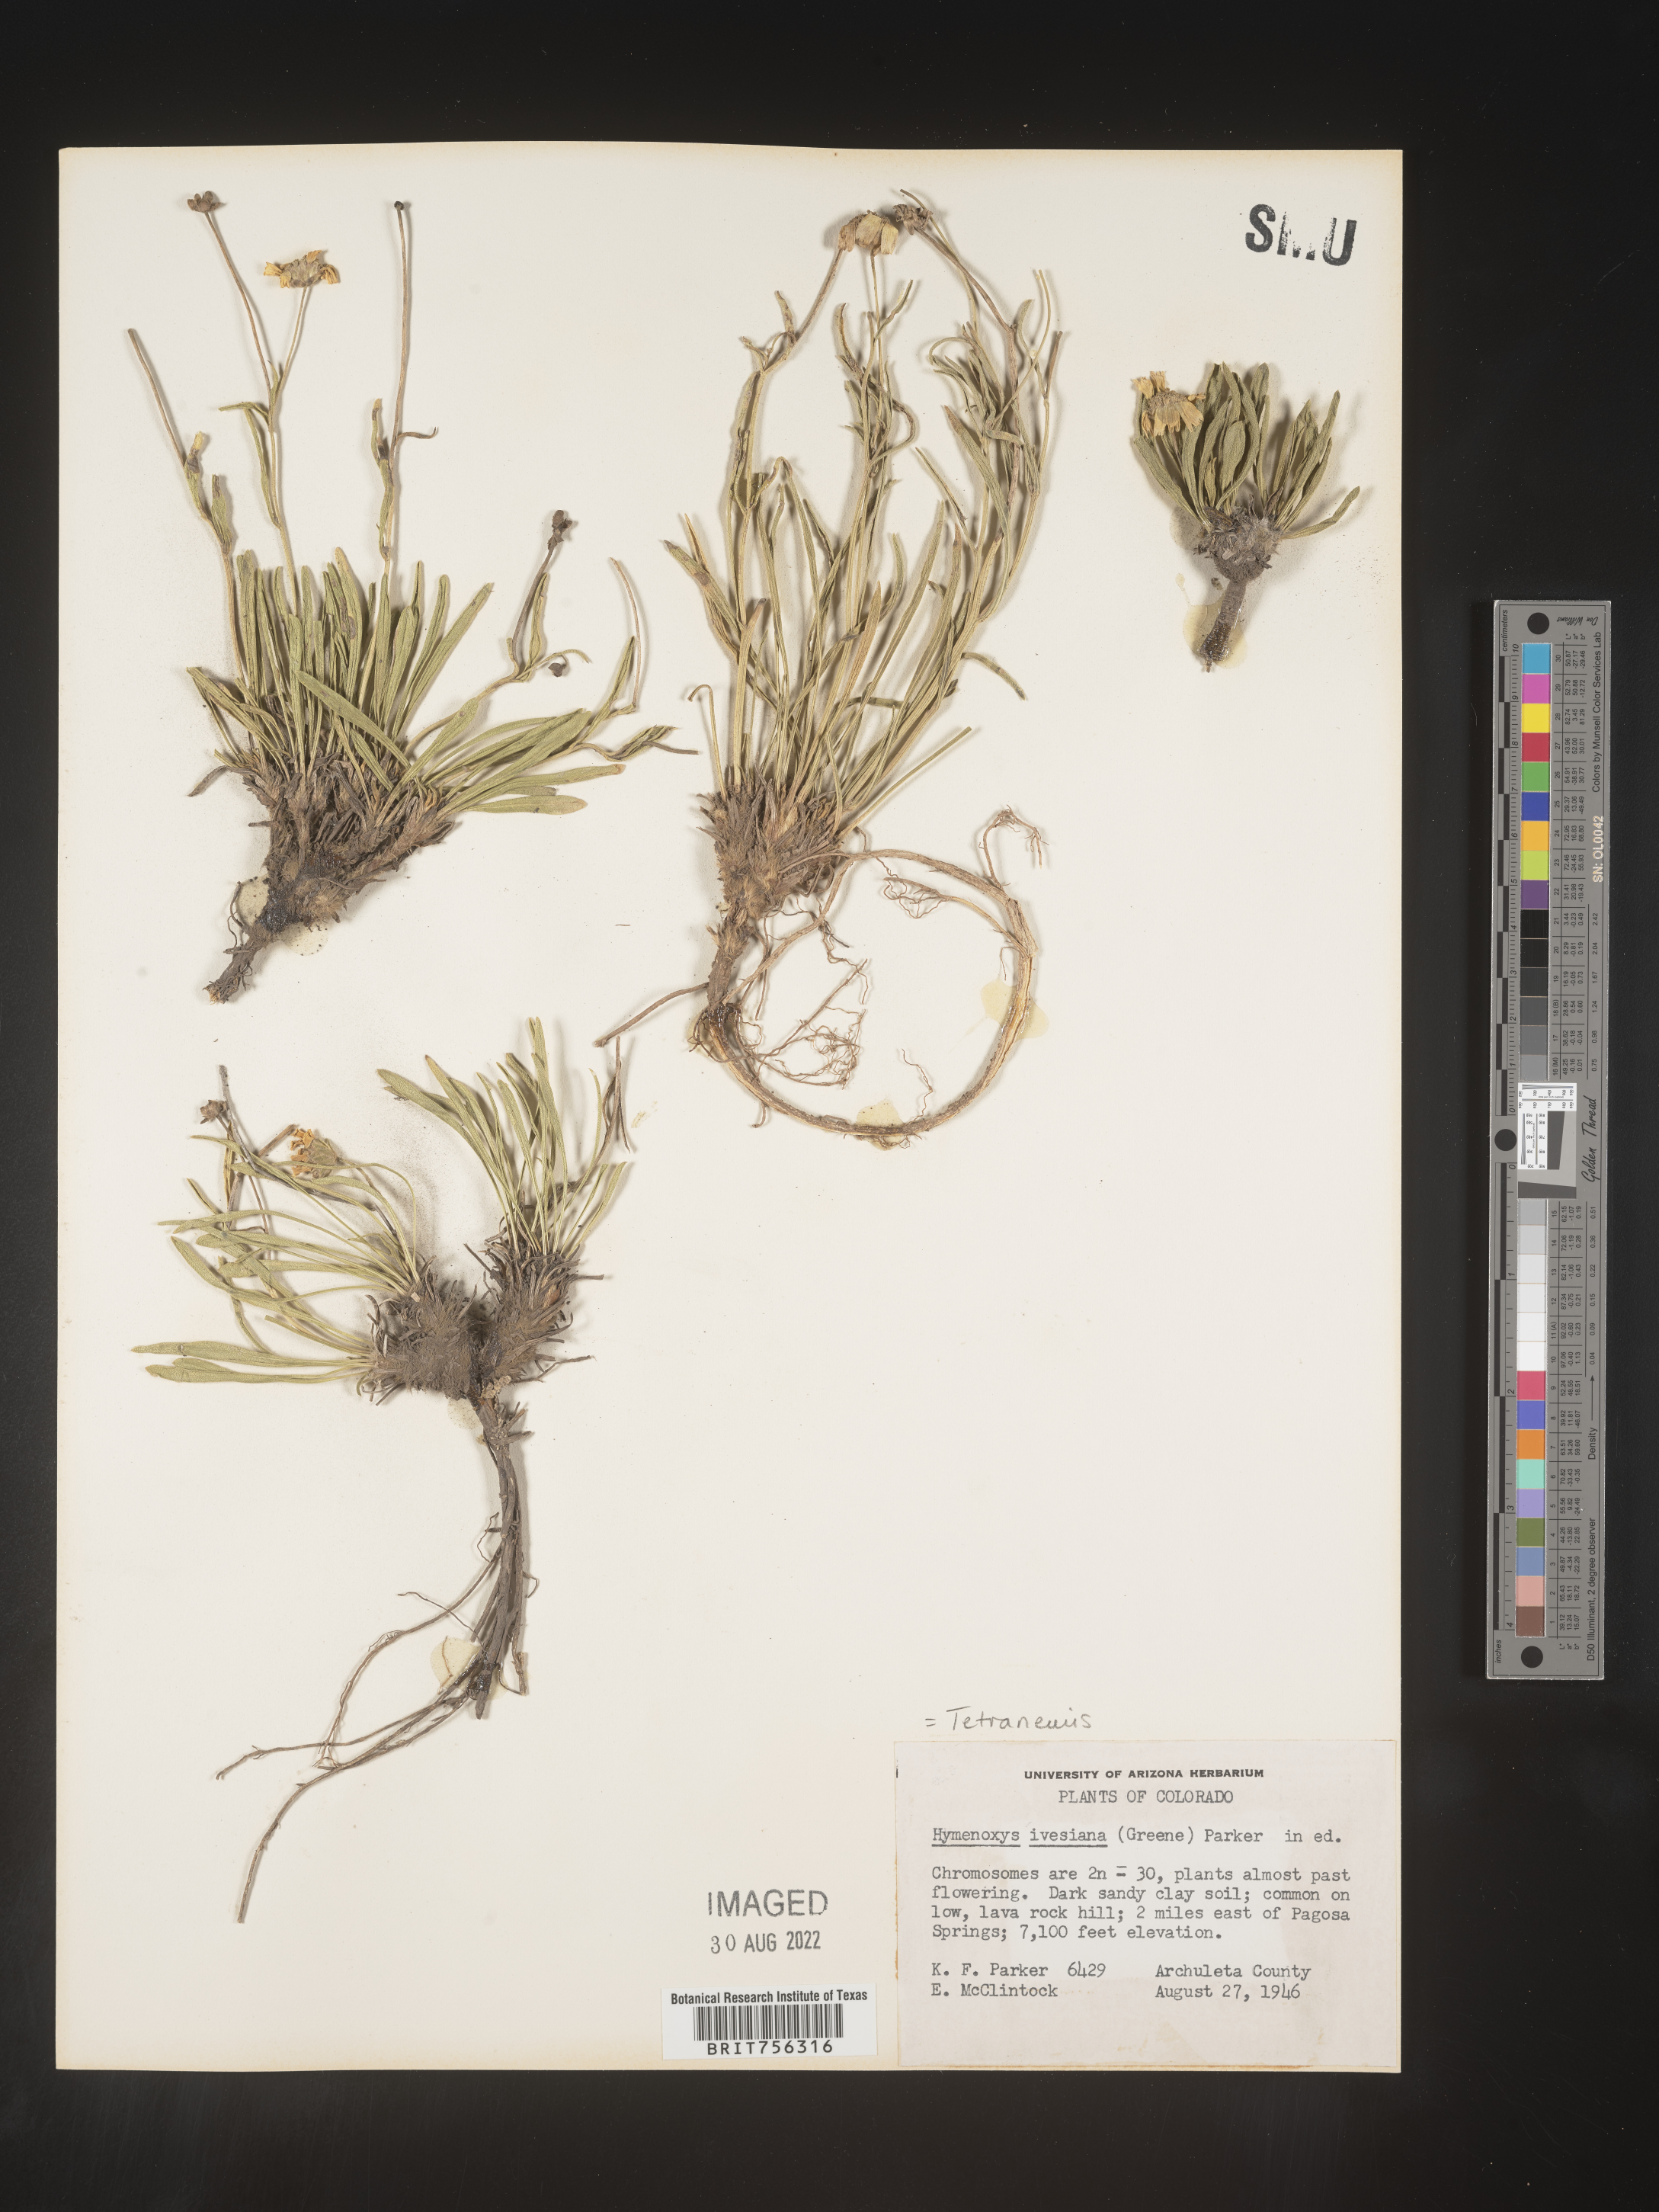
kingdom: Plantae
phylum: Tracheophyta
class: Magnoliopsida
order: Asterales
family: Asteraceae
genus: Tetraneuris
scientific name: Tetraneuris ivesiana
